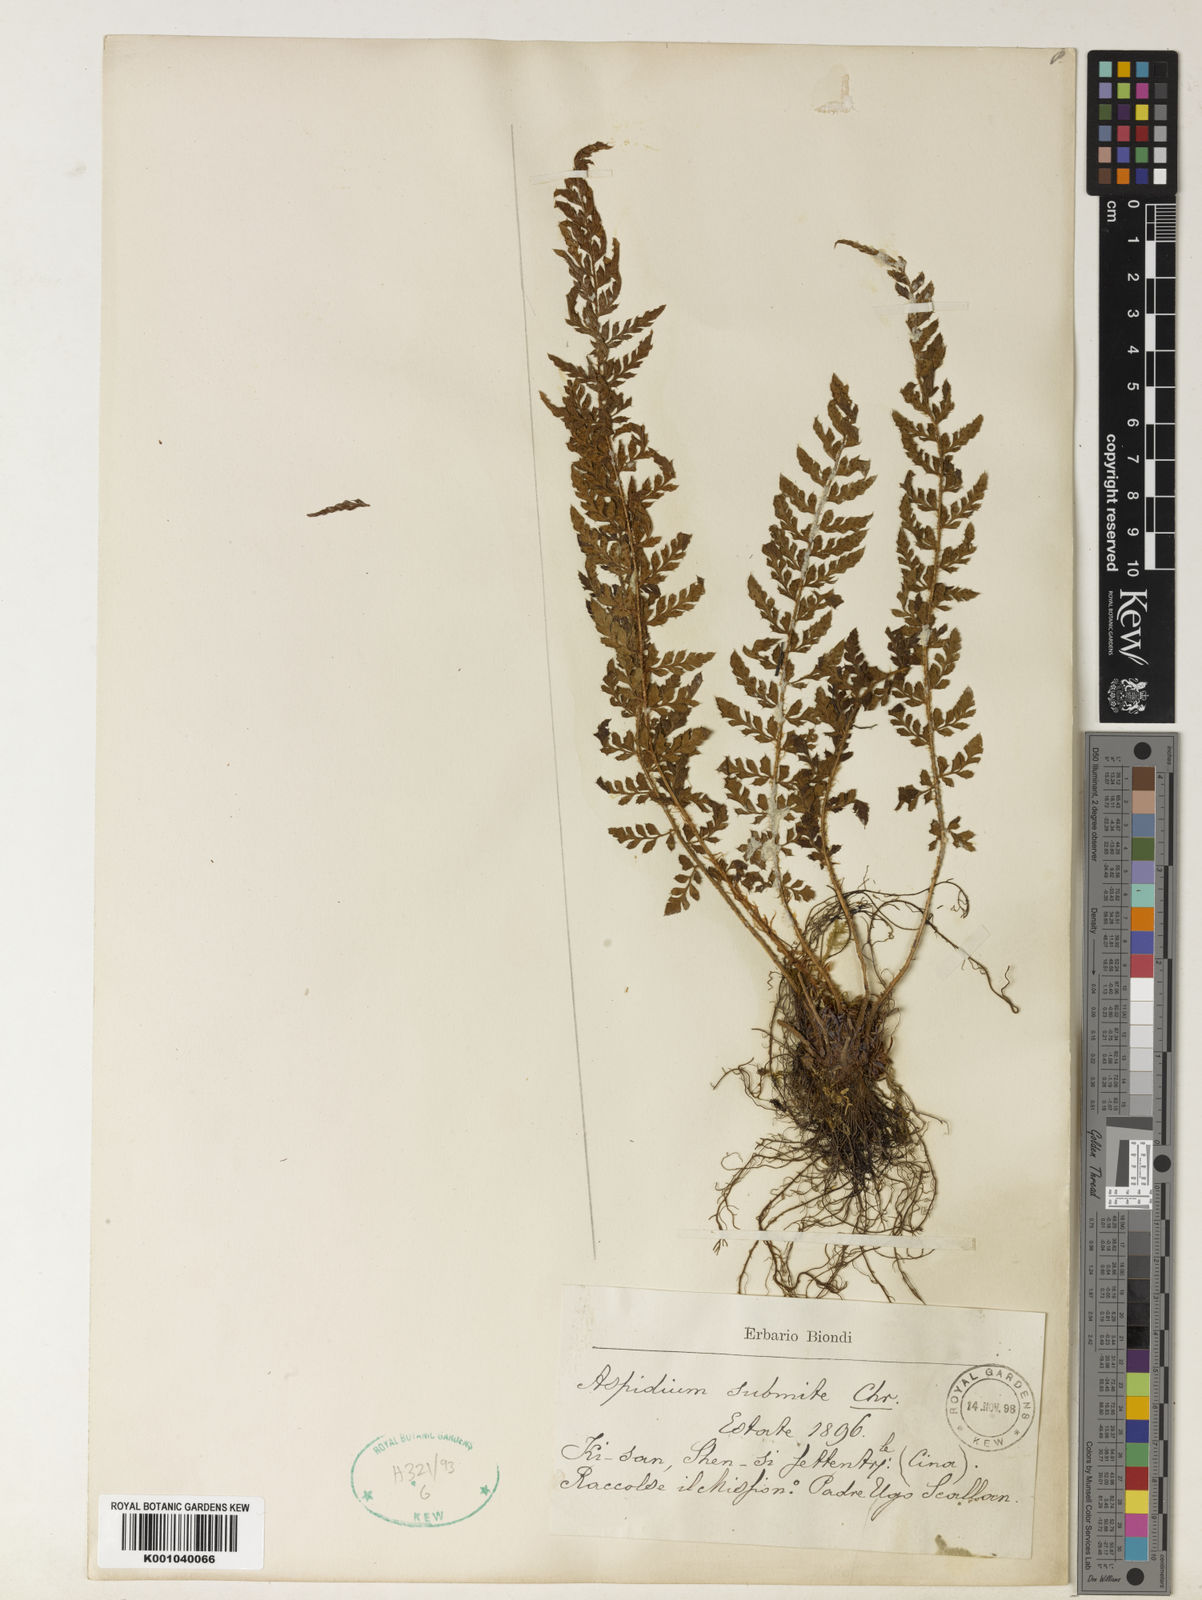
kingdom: Plantae
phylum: Tracheophyta
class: Polypodiopsida
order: Polypodiales
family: Dryopteridaceae
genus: Polystichum
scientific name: Polystichum submite
